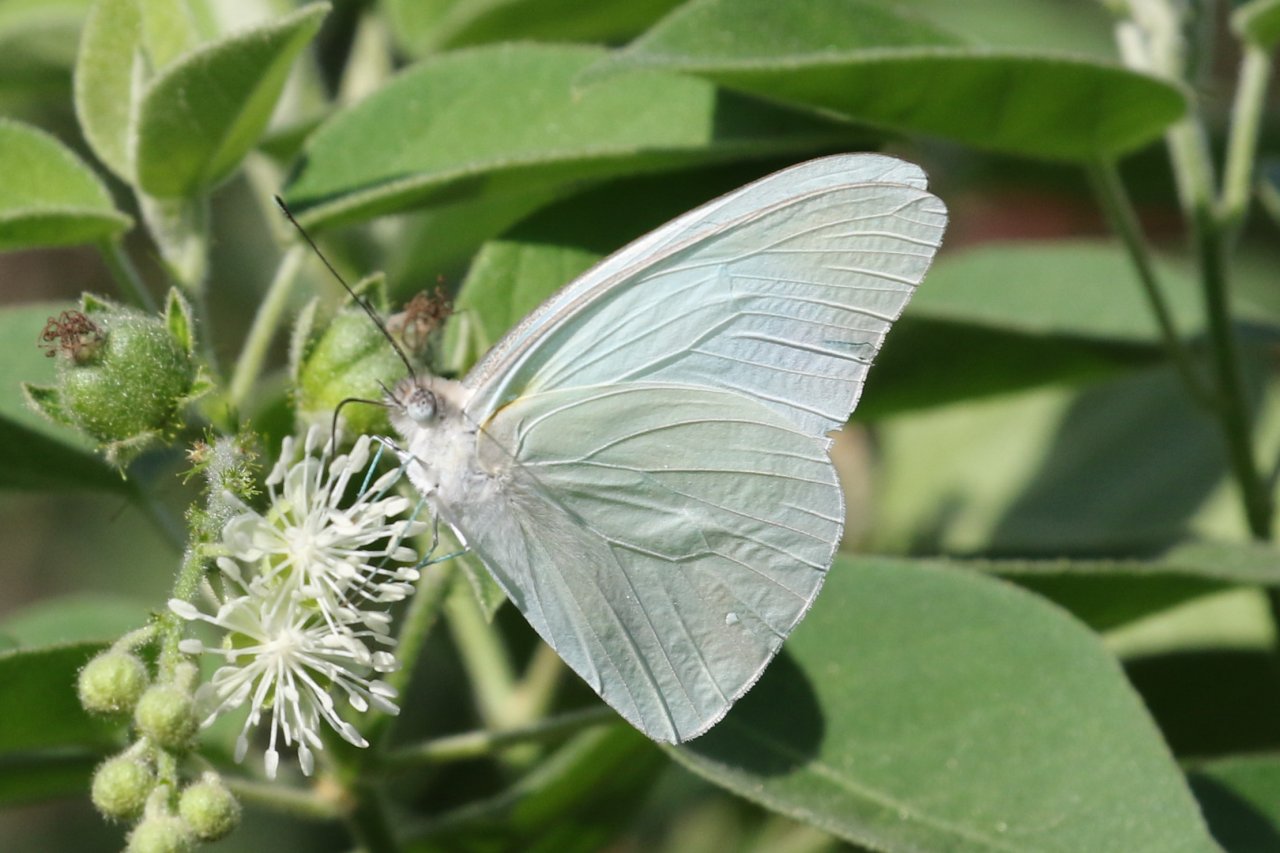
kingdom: Animalia
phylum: Arthropoda
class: Insecta
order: Lepidoptera
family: Pieridae
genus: Glutophrissa
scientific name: Glutophrissa drusilla
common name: Florida White
